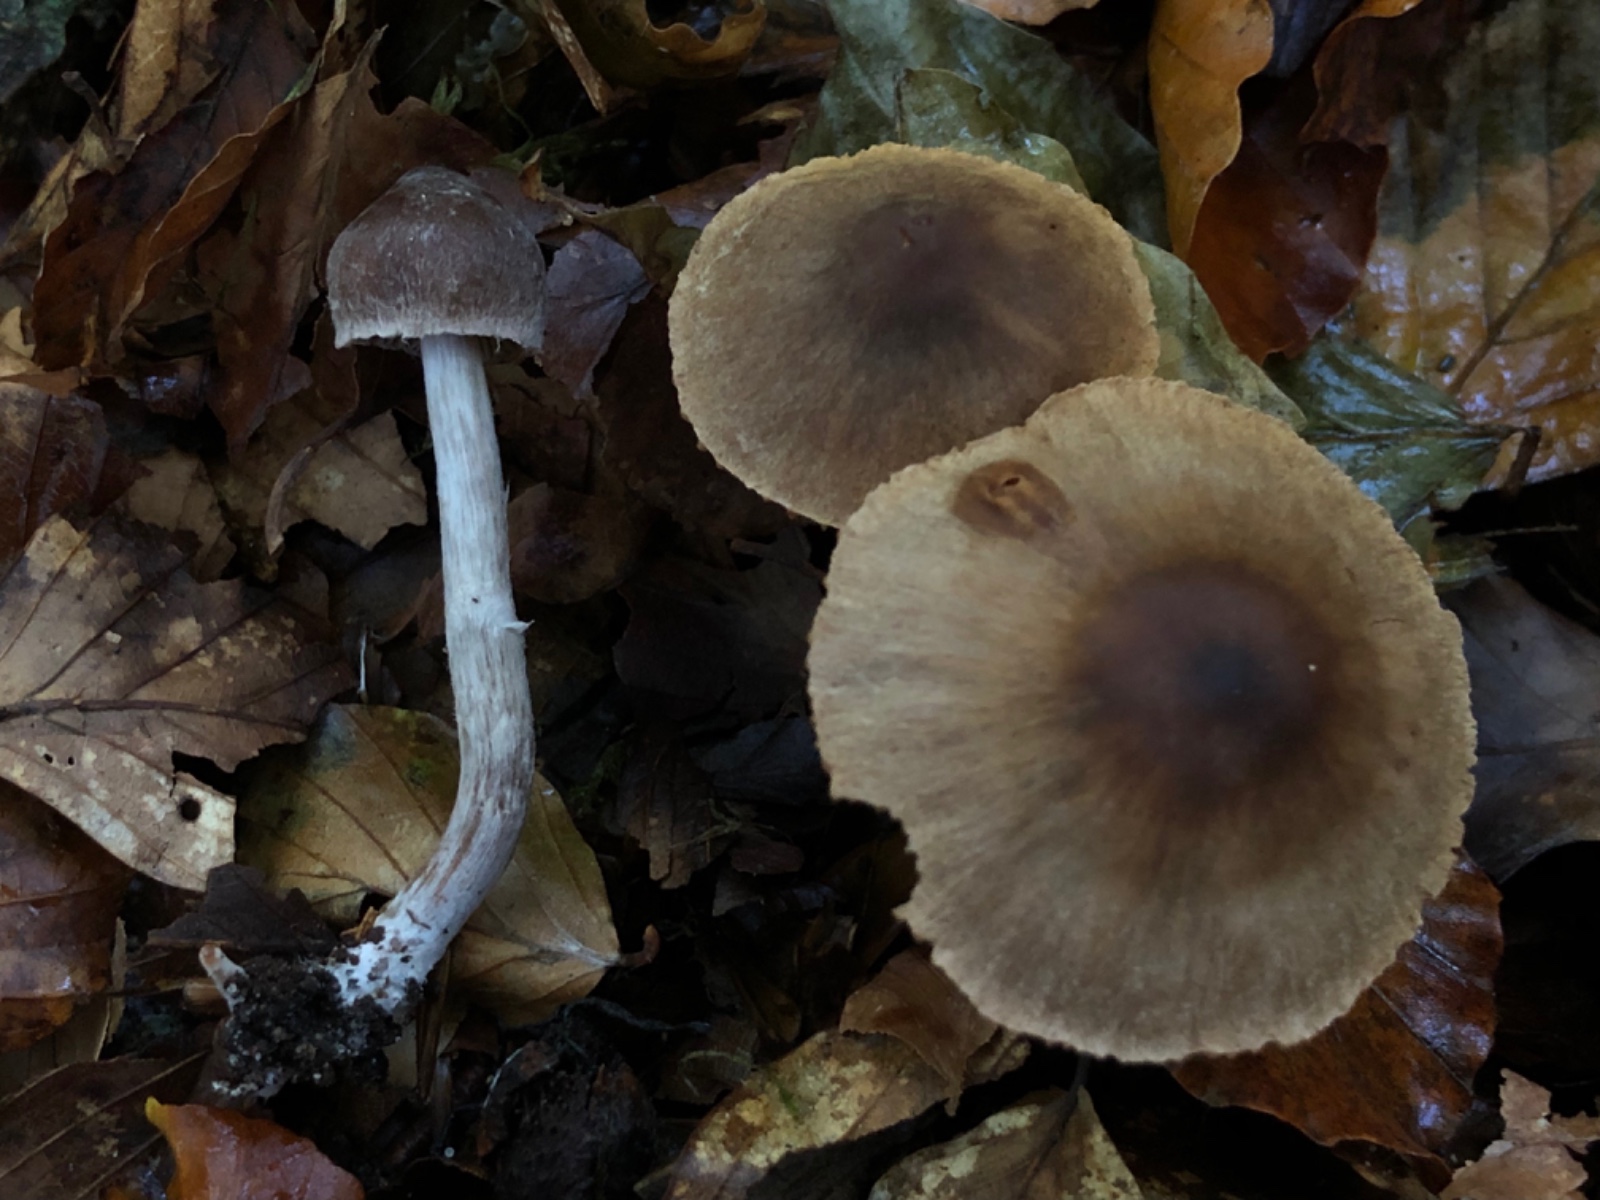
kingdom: Fungi
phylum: Basidiomycota
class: Agaricomycetes
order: Agaricales
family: Cortinariaceae
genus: Cortinarius
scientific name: Cortinarius
